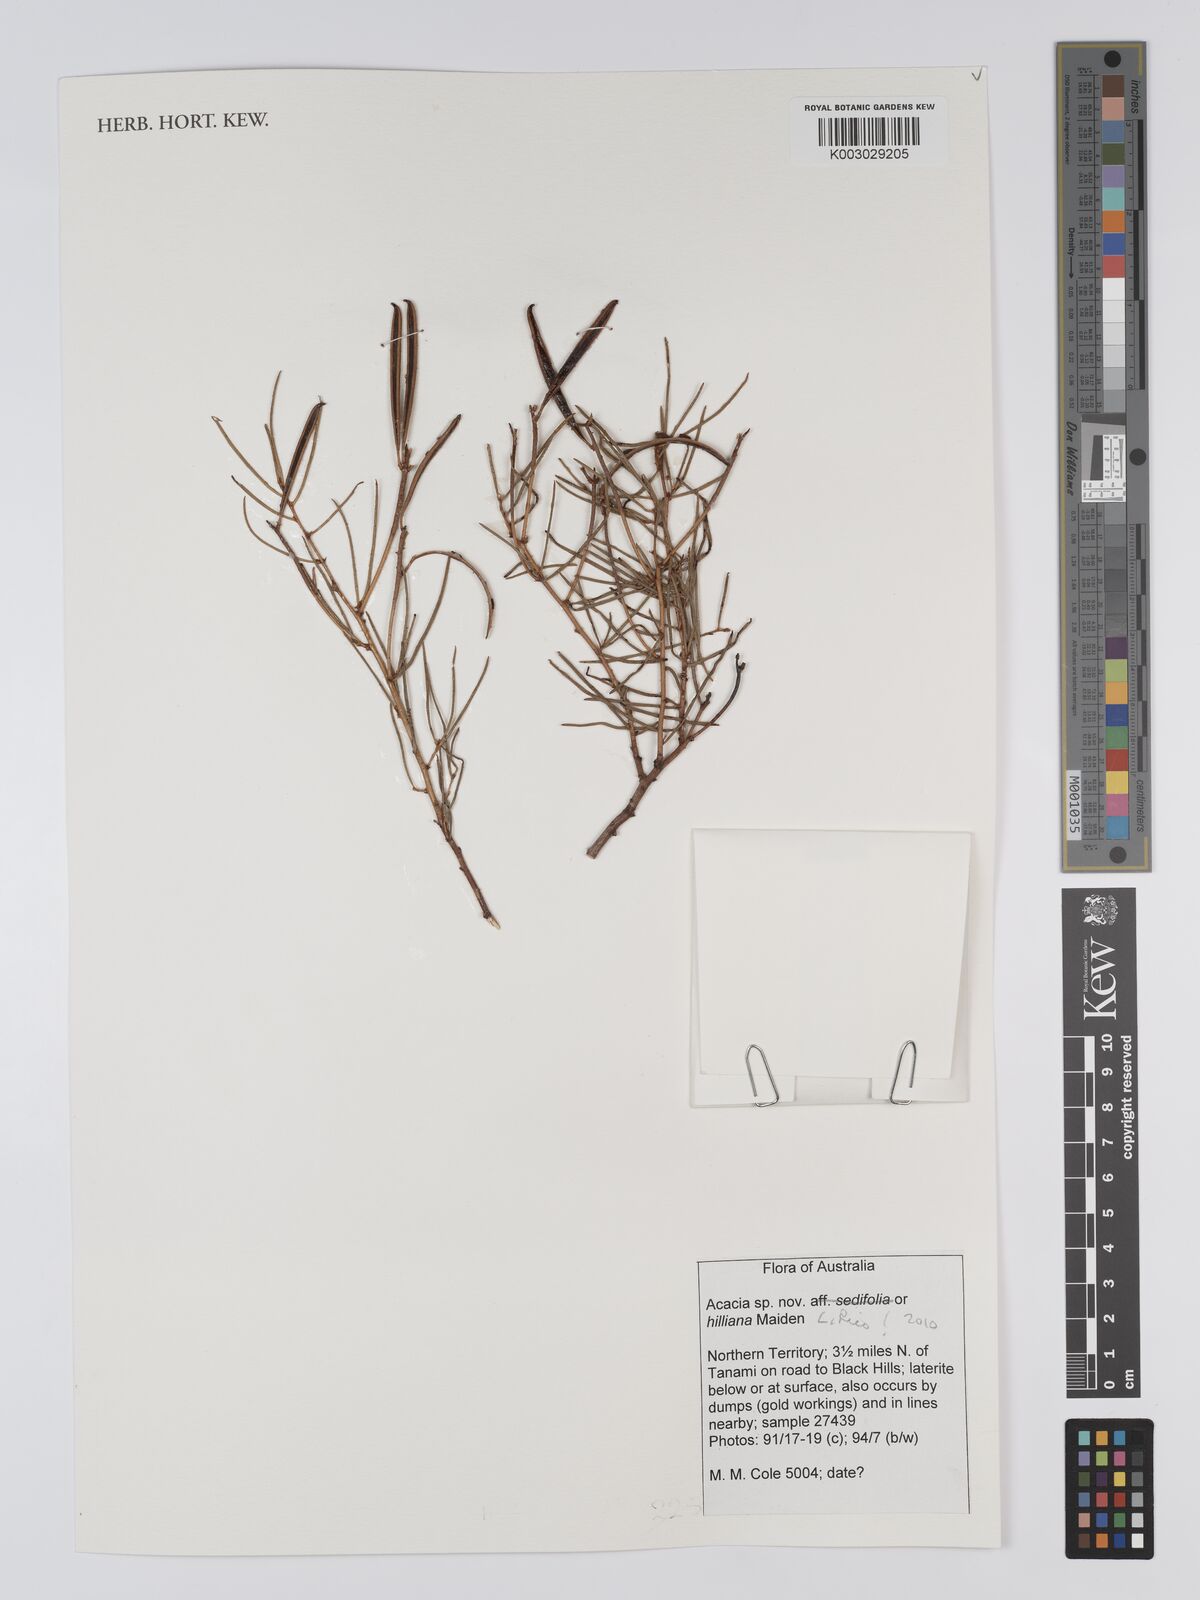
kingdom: Plantae
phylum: Tracheophyta
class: Magnoliopsida
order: Fabales
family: Fabaceae
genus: Acacia
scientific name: Acacia hilliana
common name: Hill's tabletop wattle
